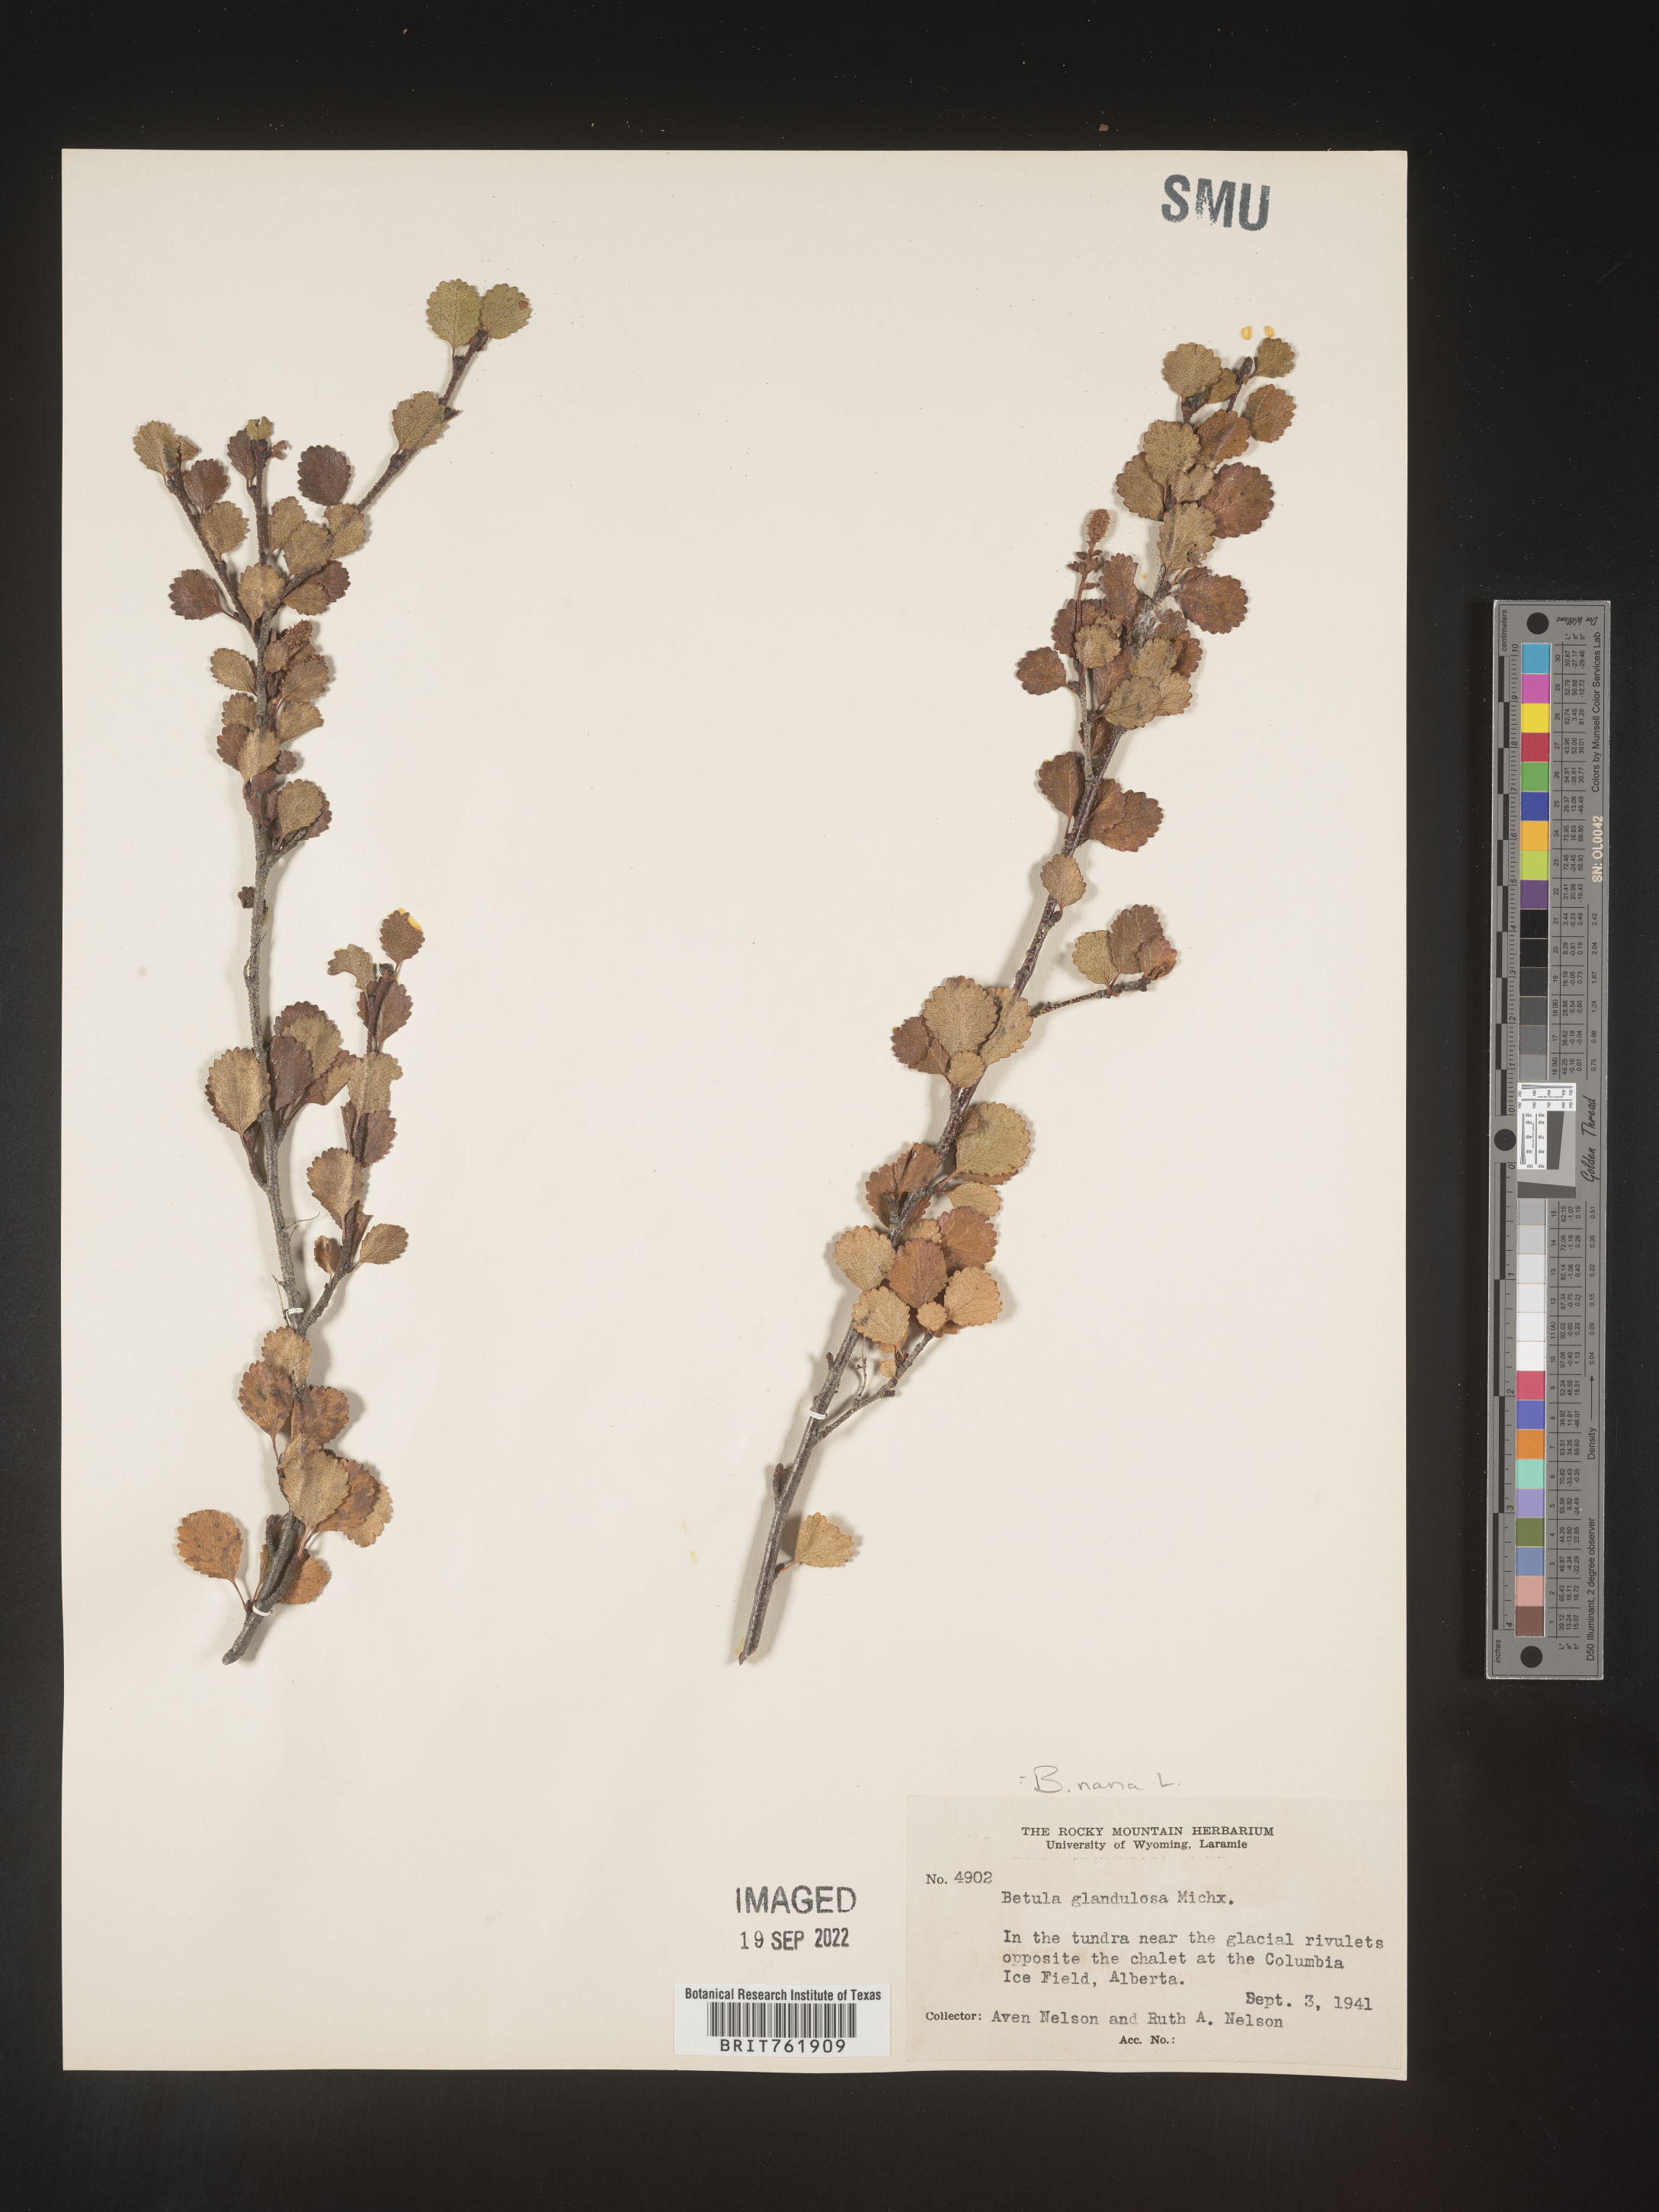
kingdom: Plantae
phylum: Tracheophyta
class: Magnoliopsida
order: Fagales
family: Betulaceae
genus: Betula
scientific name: Betula nana
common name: Arctic dwarf birch
